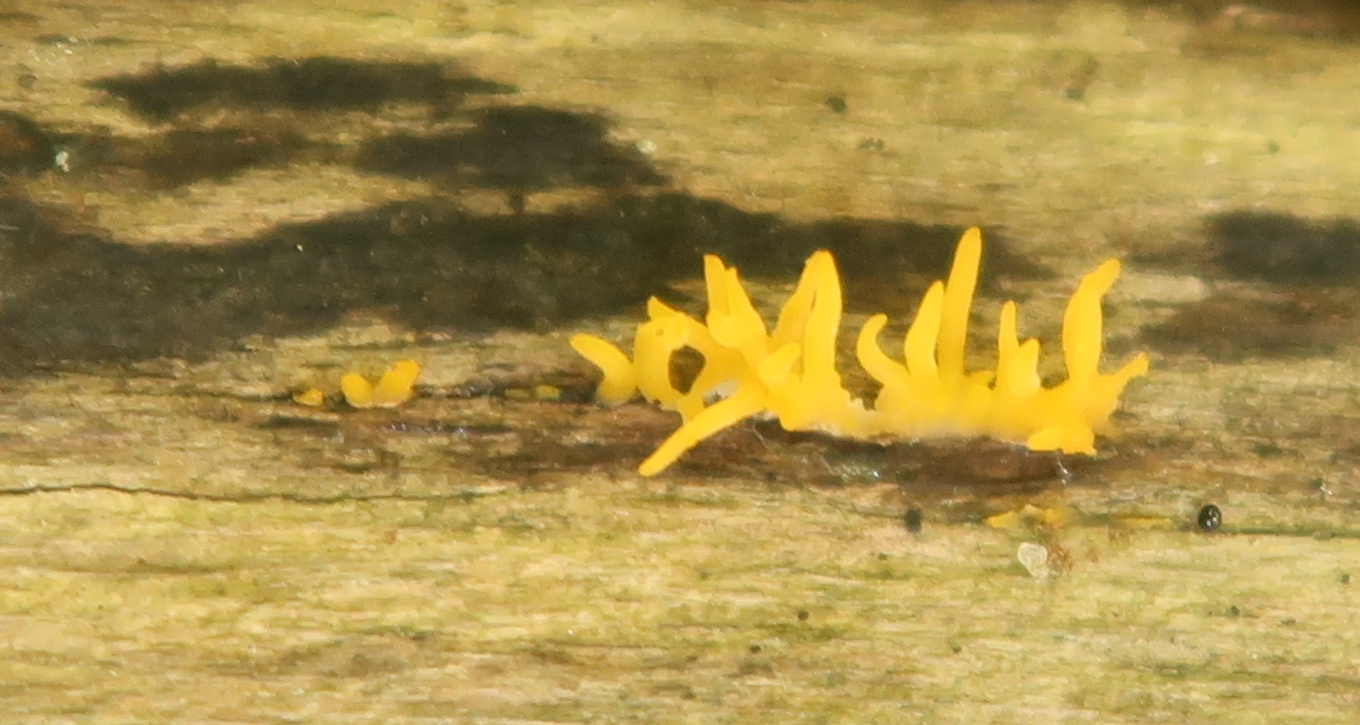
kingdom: Fungi
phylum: Basidiomycota
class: Dacrymycetes
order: Dacrymycetales
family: Dacrymycetaceae
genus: Calocera
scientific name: Calocera cornea
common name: liden guldgaffel
